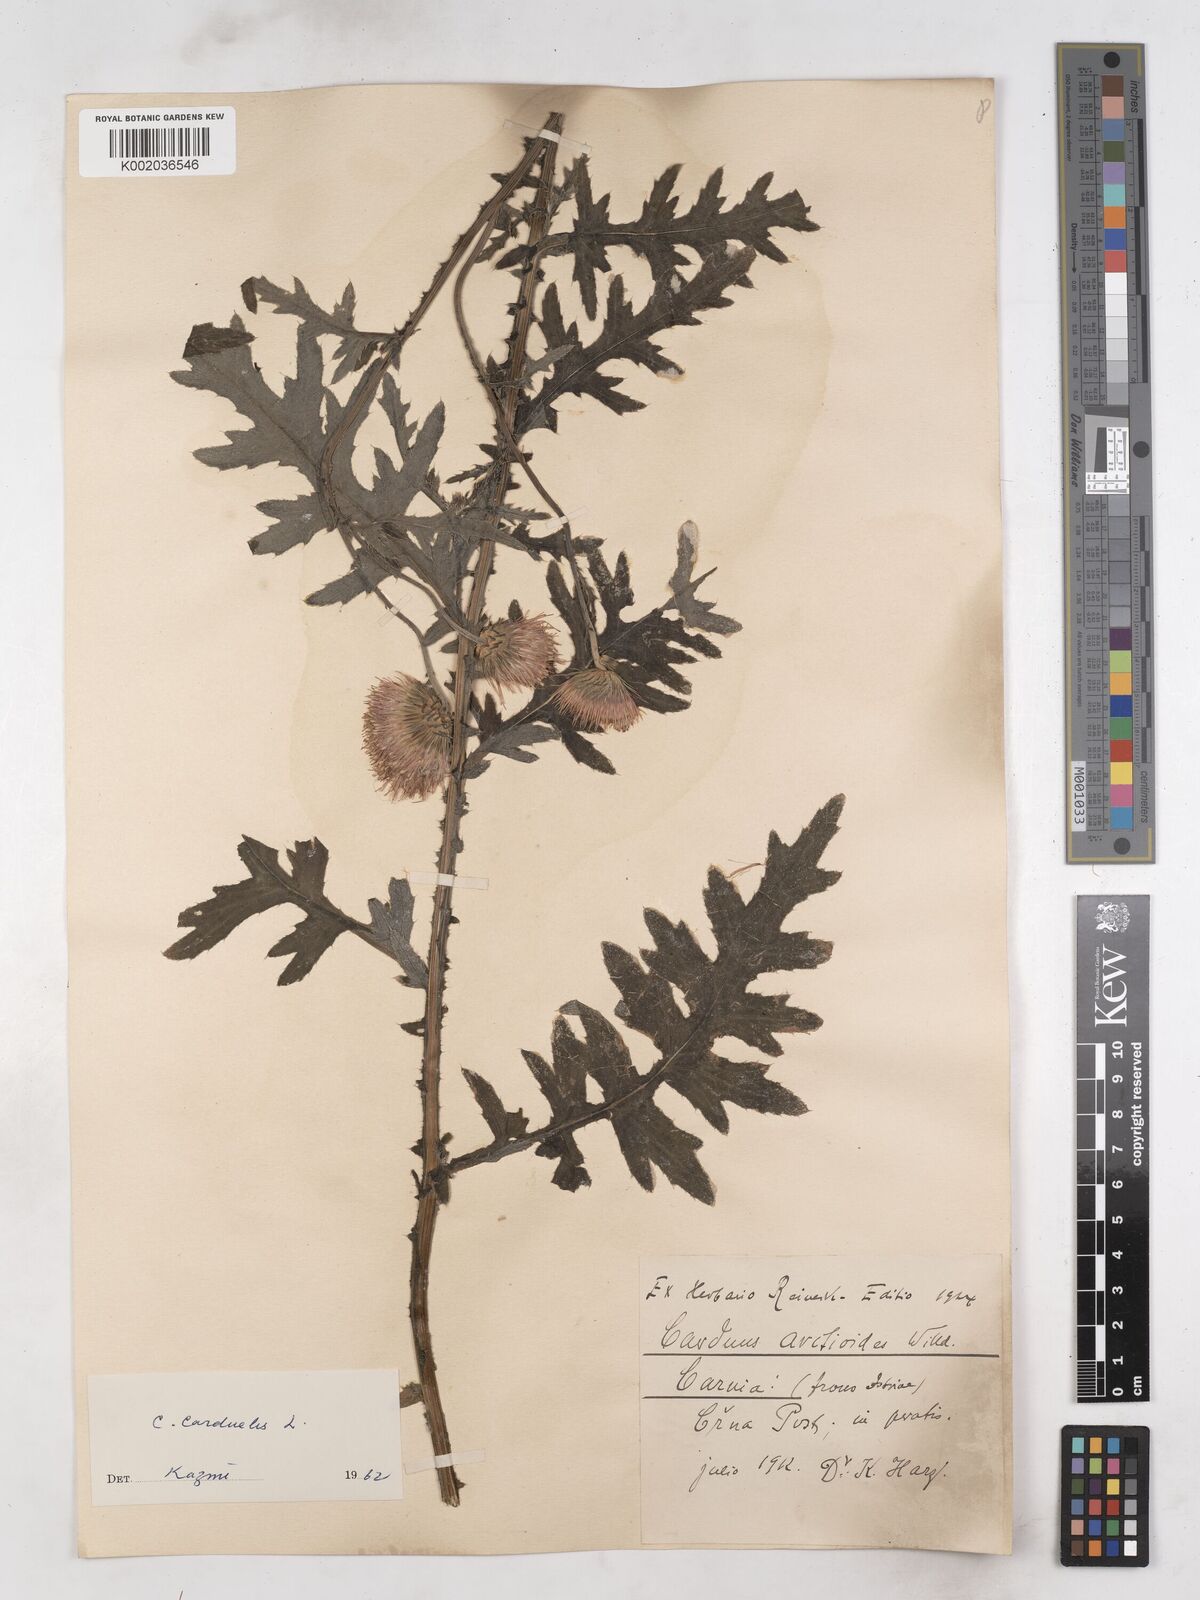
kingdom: Plantae
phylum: Tracheophyta
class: Magnoliopsida
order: Asterales
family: Asteraceae
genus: Carduus
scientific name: Carduus carduelis
